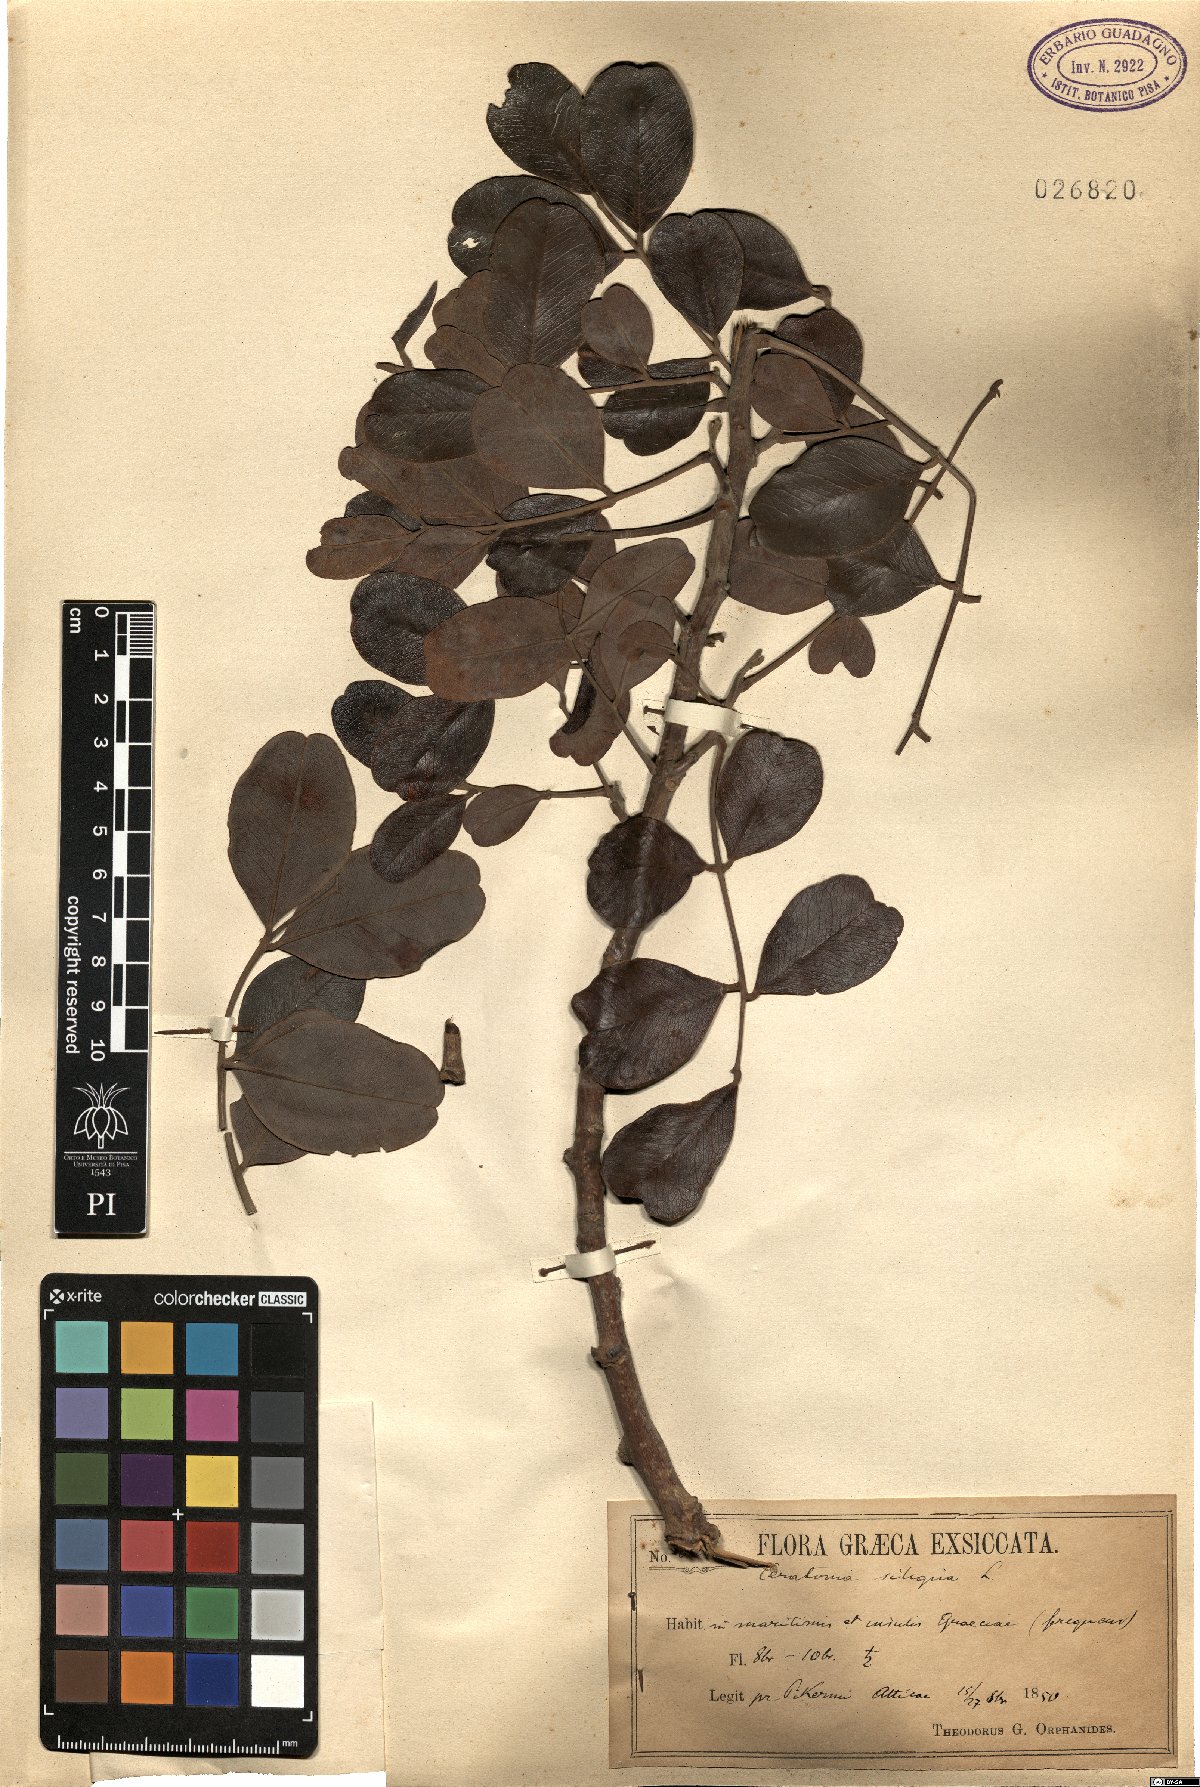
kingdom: Plantae
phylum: Tracheophyta
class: Magnoliopsida
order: Fabales
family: Fabaceae
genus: Ceratonia
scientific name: Ceratonia siliqua
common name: Carob
